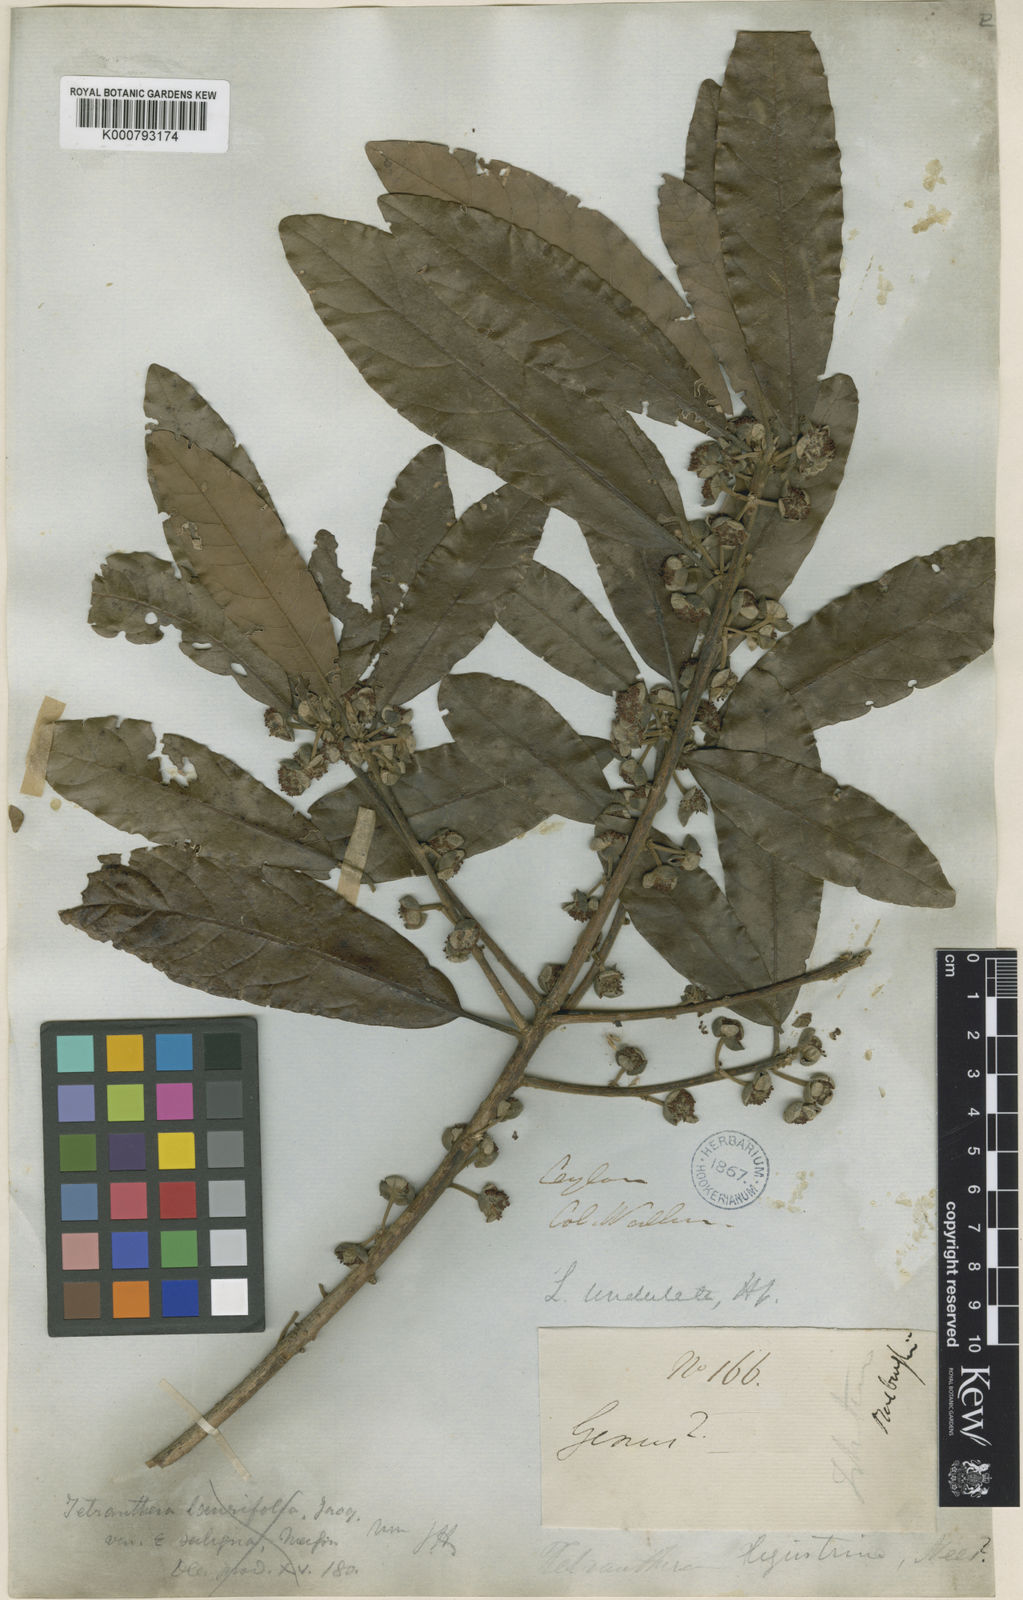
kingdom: Plantae
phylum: Tracheophyta
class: Magnoliopsida
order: Laurales
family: Lauraceae
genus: Litsea
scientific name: Litsea ligustrina
